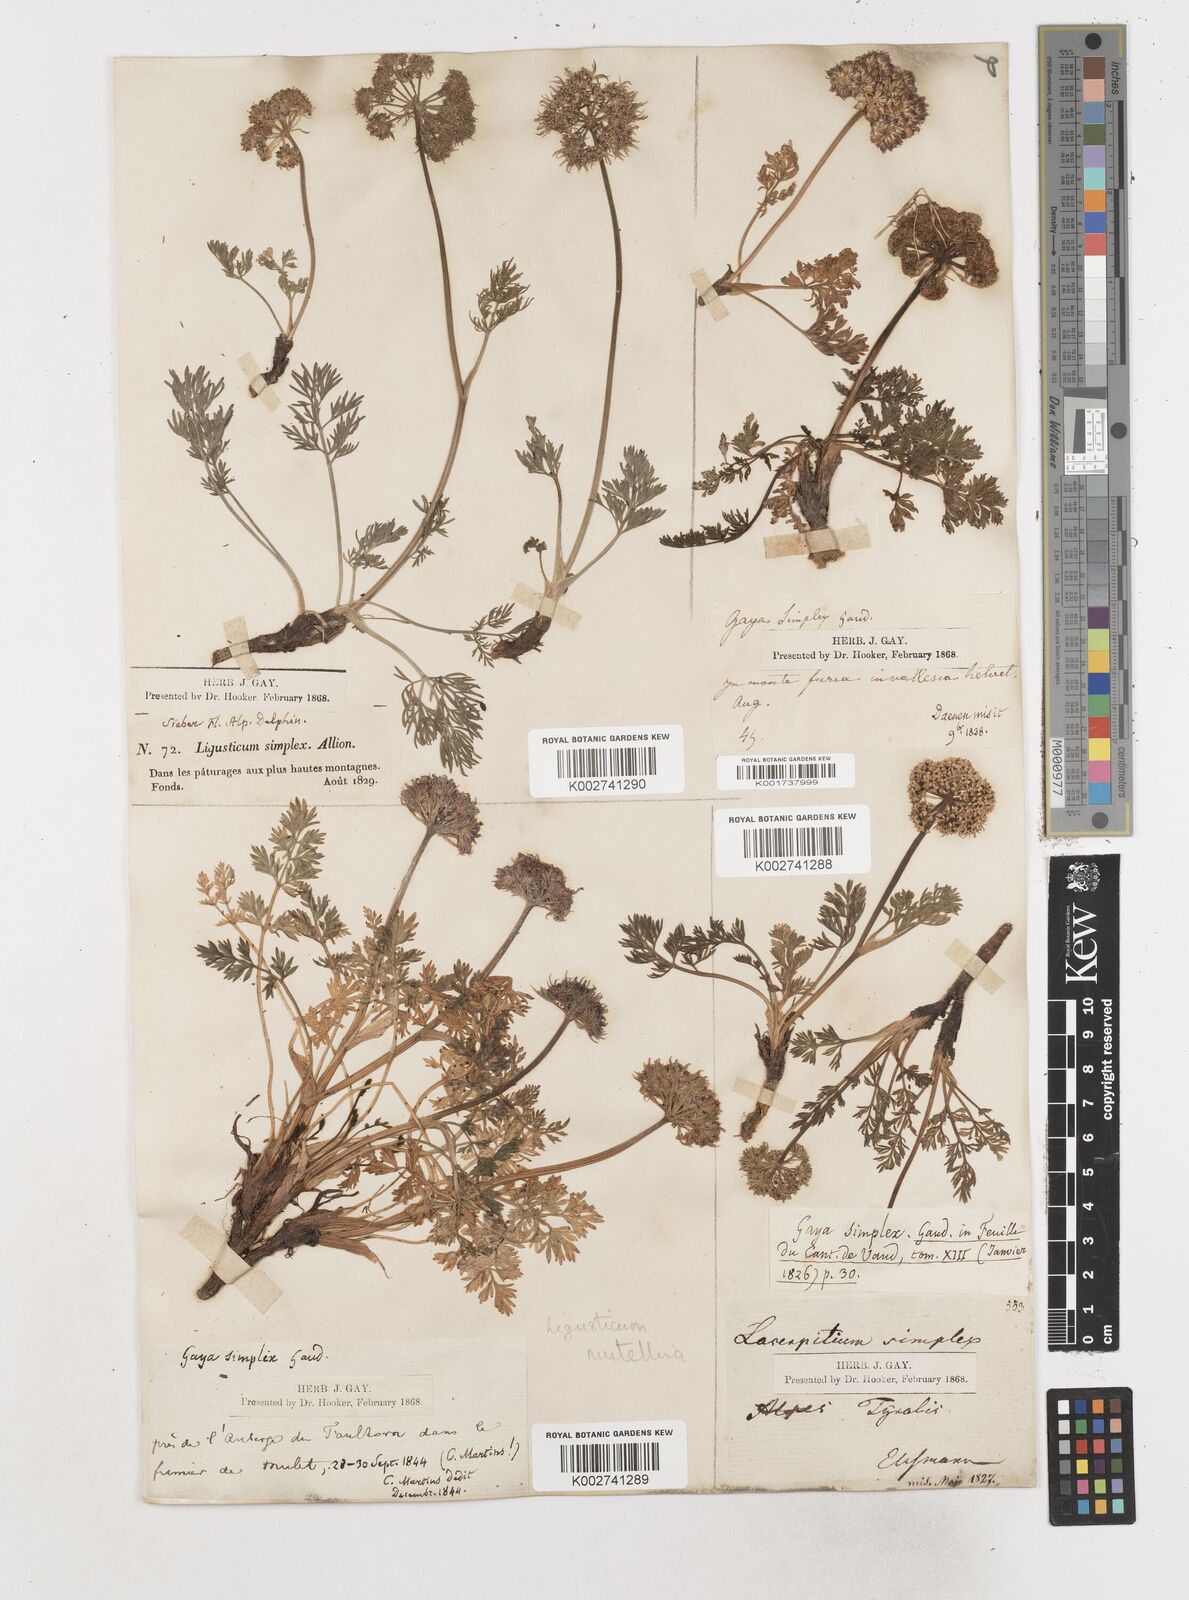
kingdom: Plantae
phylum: Tracheophyta
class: Magnoliopsida
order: Apiales
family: Apiaceae
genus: Mutellina
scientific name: Mutellina adonidifolia
